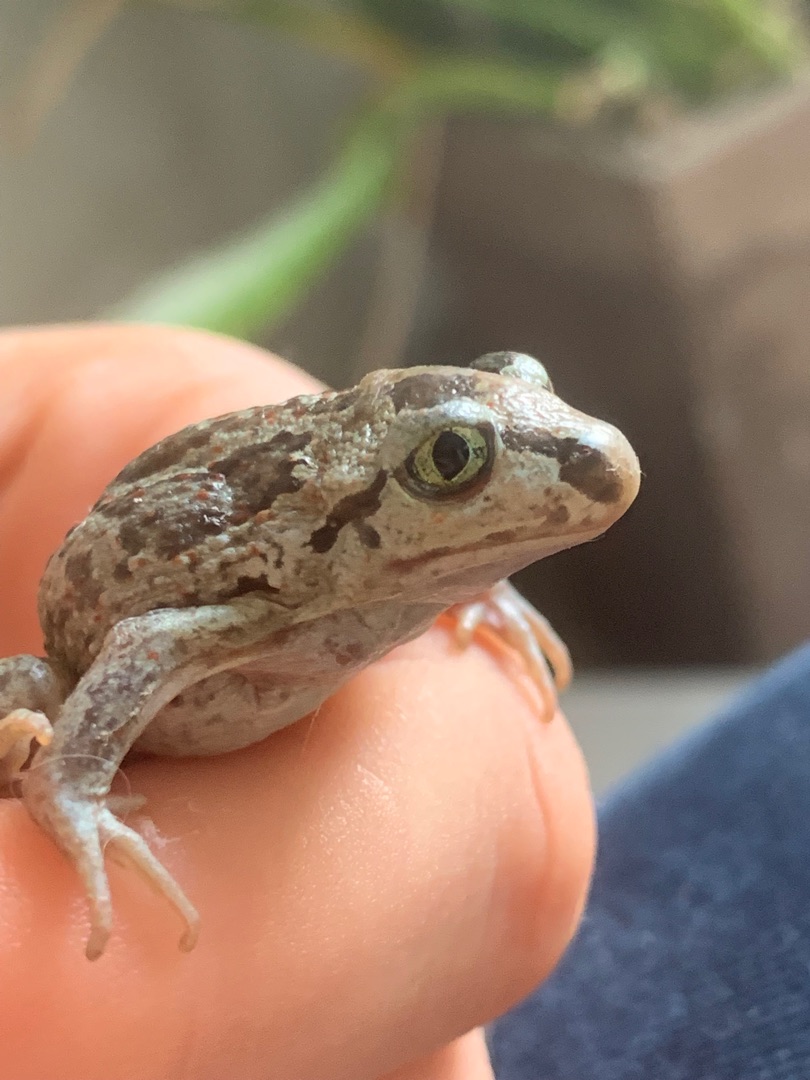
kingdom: Animalia
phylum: Chordata
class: Amphibia
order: Anura
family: Pelobatidae
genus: Pelobates
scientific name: Pelobates fuscus
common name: Løgfrø
